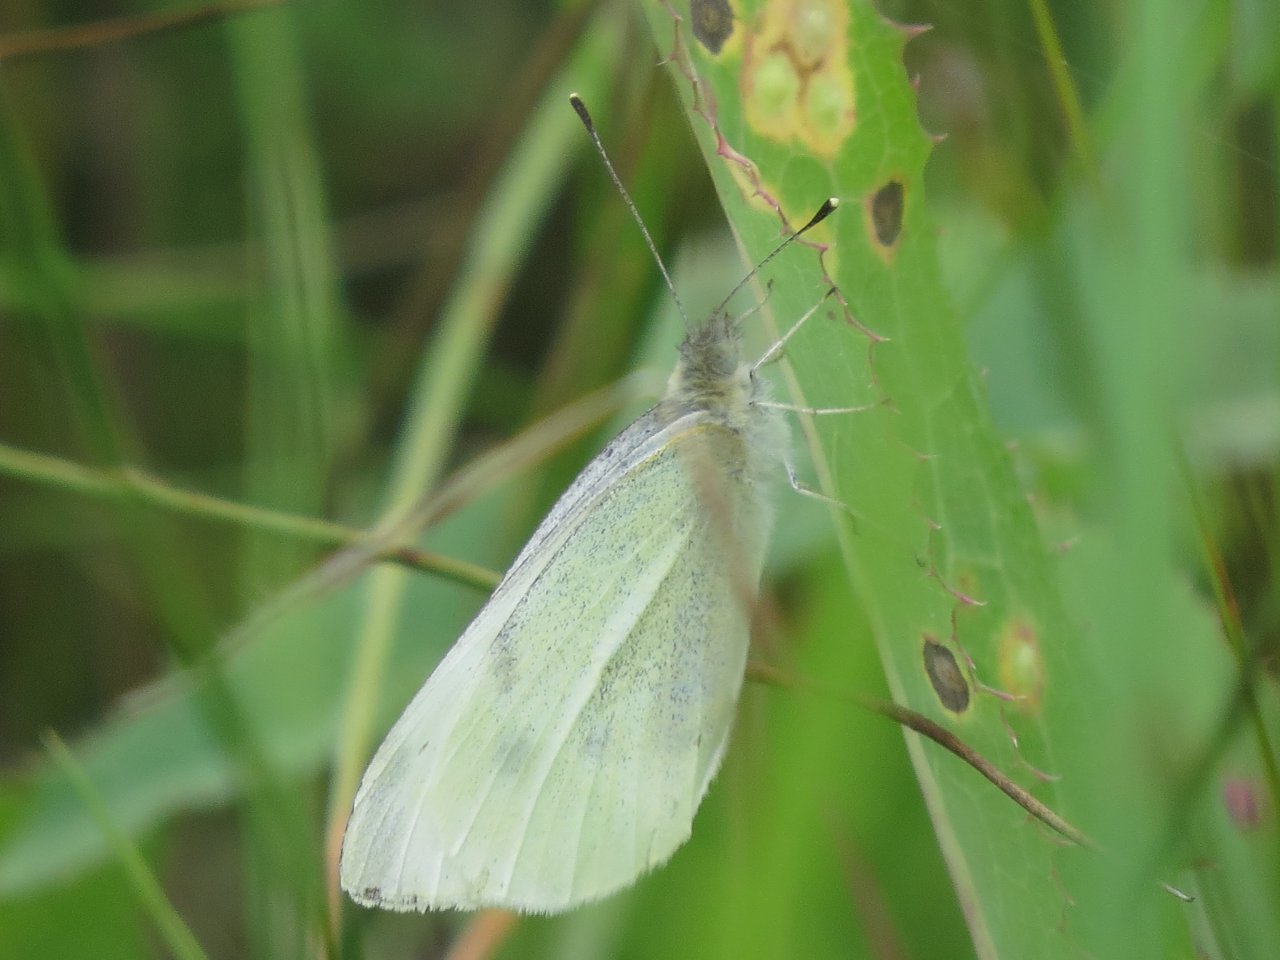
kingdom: Animalia
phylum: Arthropoda
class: Insecta
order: Lepidoptera
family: Pieridae
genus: Pieris
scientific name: Pieris rapae
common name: Cabbage White
